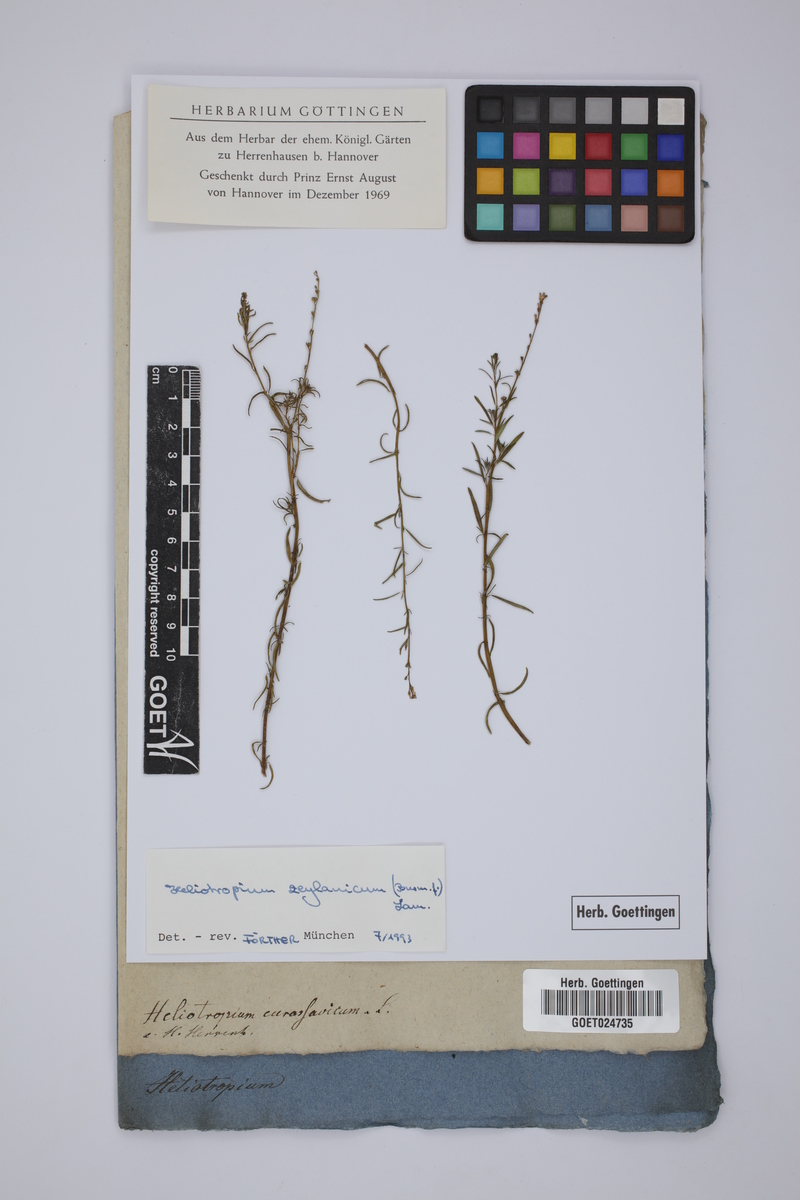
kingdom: Plantae
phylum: Tracheophyta
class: Magnoliopsida
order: Boraginales
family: Heliotropiaceae
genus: Heliotropium
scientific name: Heliotropium zeylanicum
